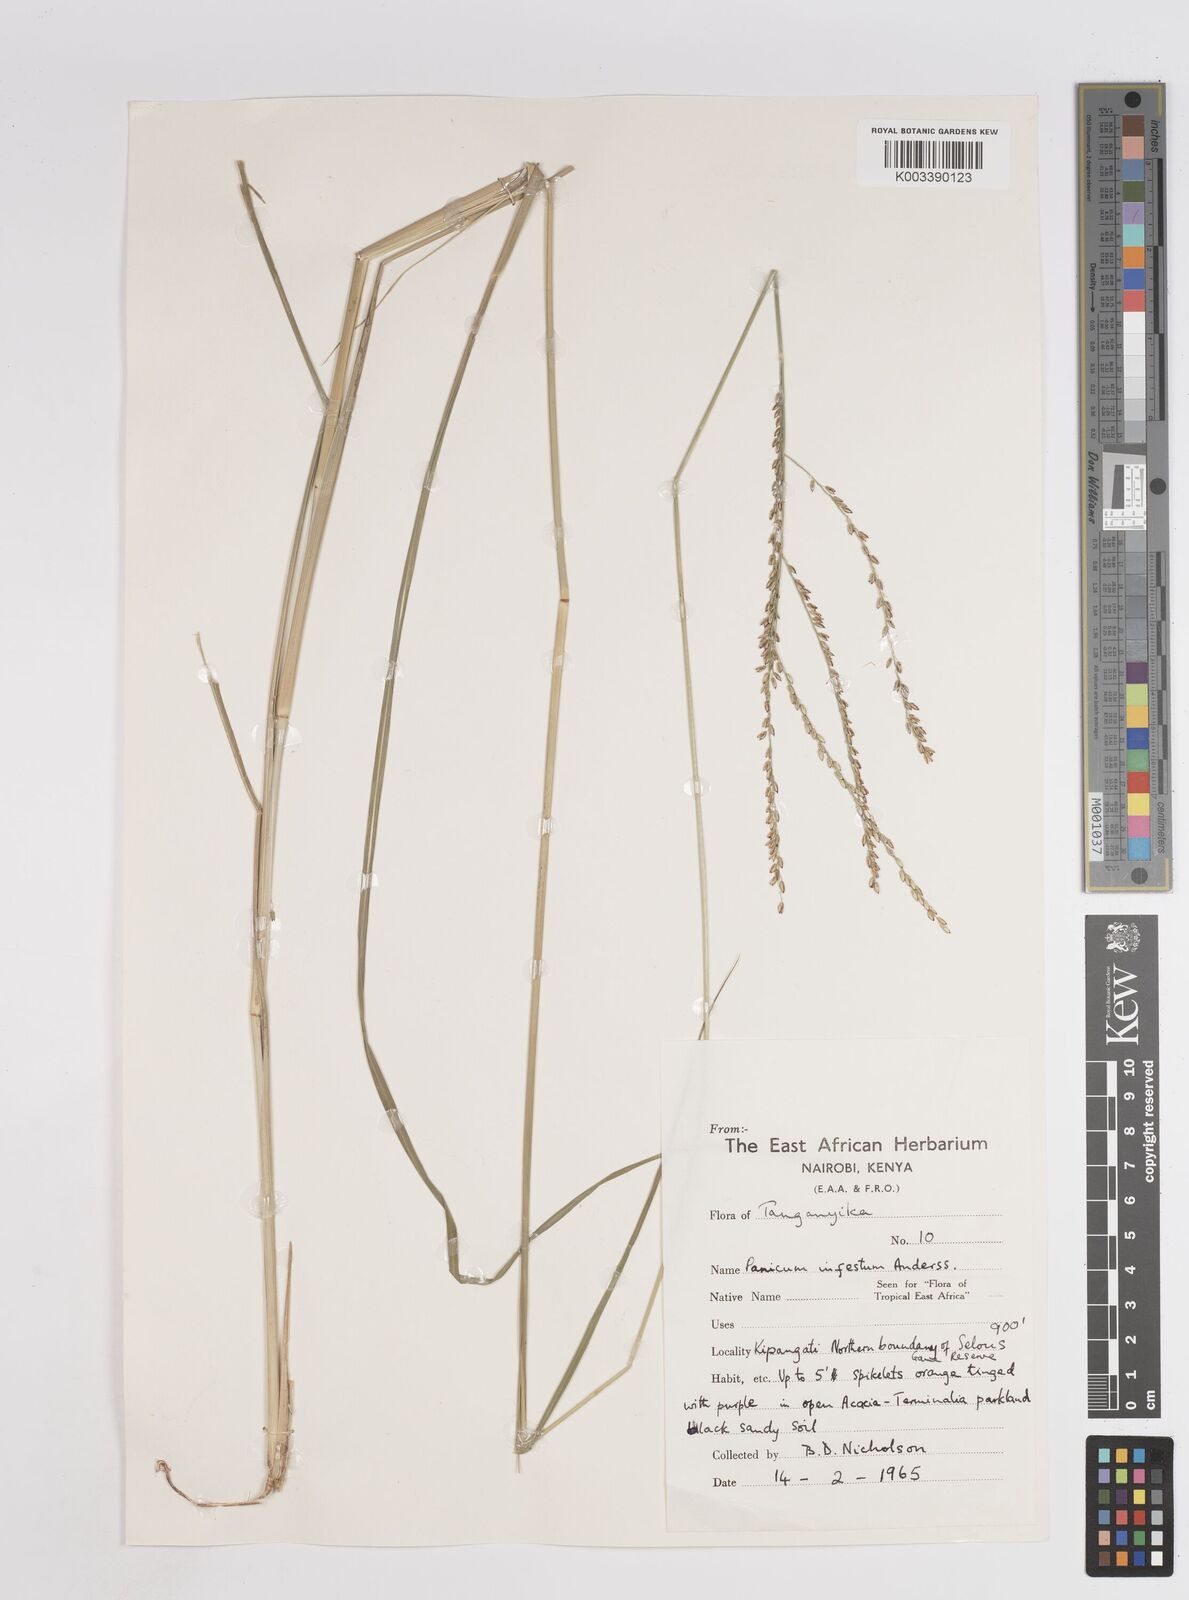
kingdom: Plantae
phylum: Tracheophyta
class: Liliopsida
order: Poales
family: Poaceae
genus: Megathyrsus
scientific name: Megathyrsus infestus
